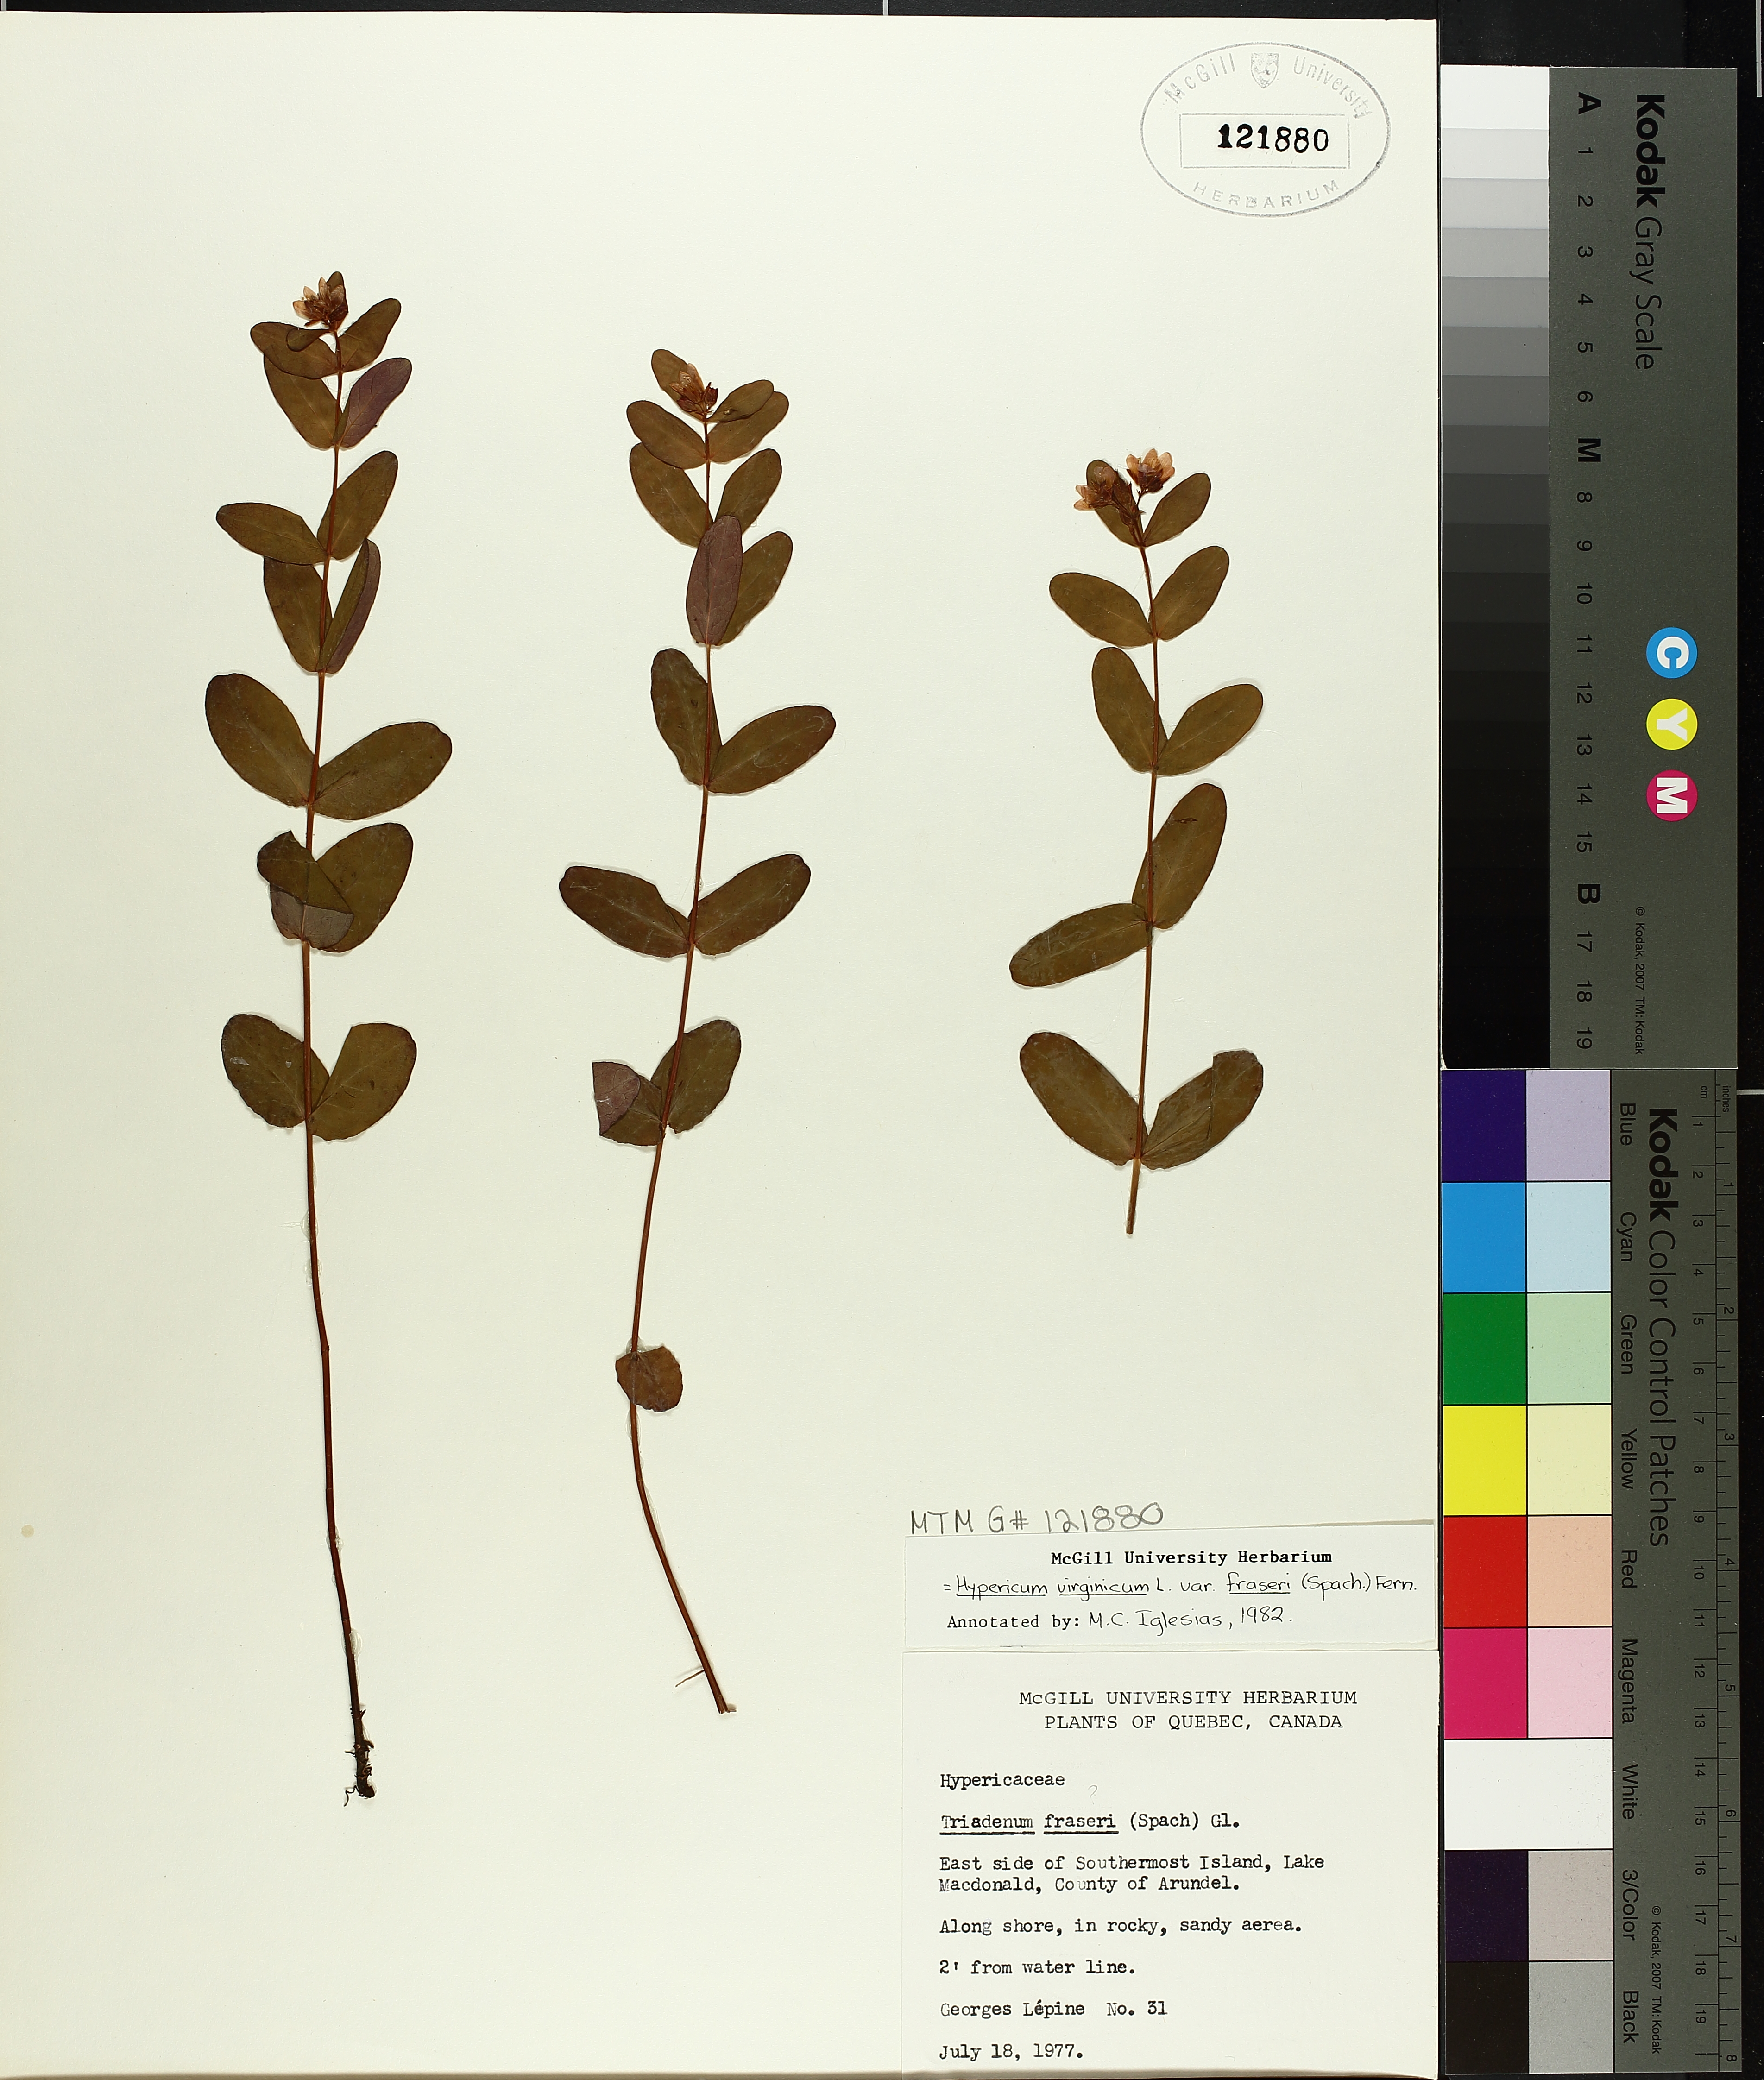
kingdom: Plantae
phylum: Tracheophyta
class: Magnoliopsida
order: Malpighiales
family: Hypericaceae
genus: Triadenum
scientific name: Triadenum fraseri
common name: Fraser's marsh st. johnswort
